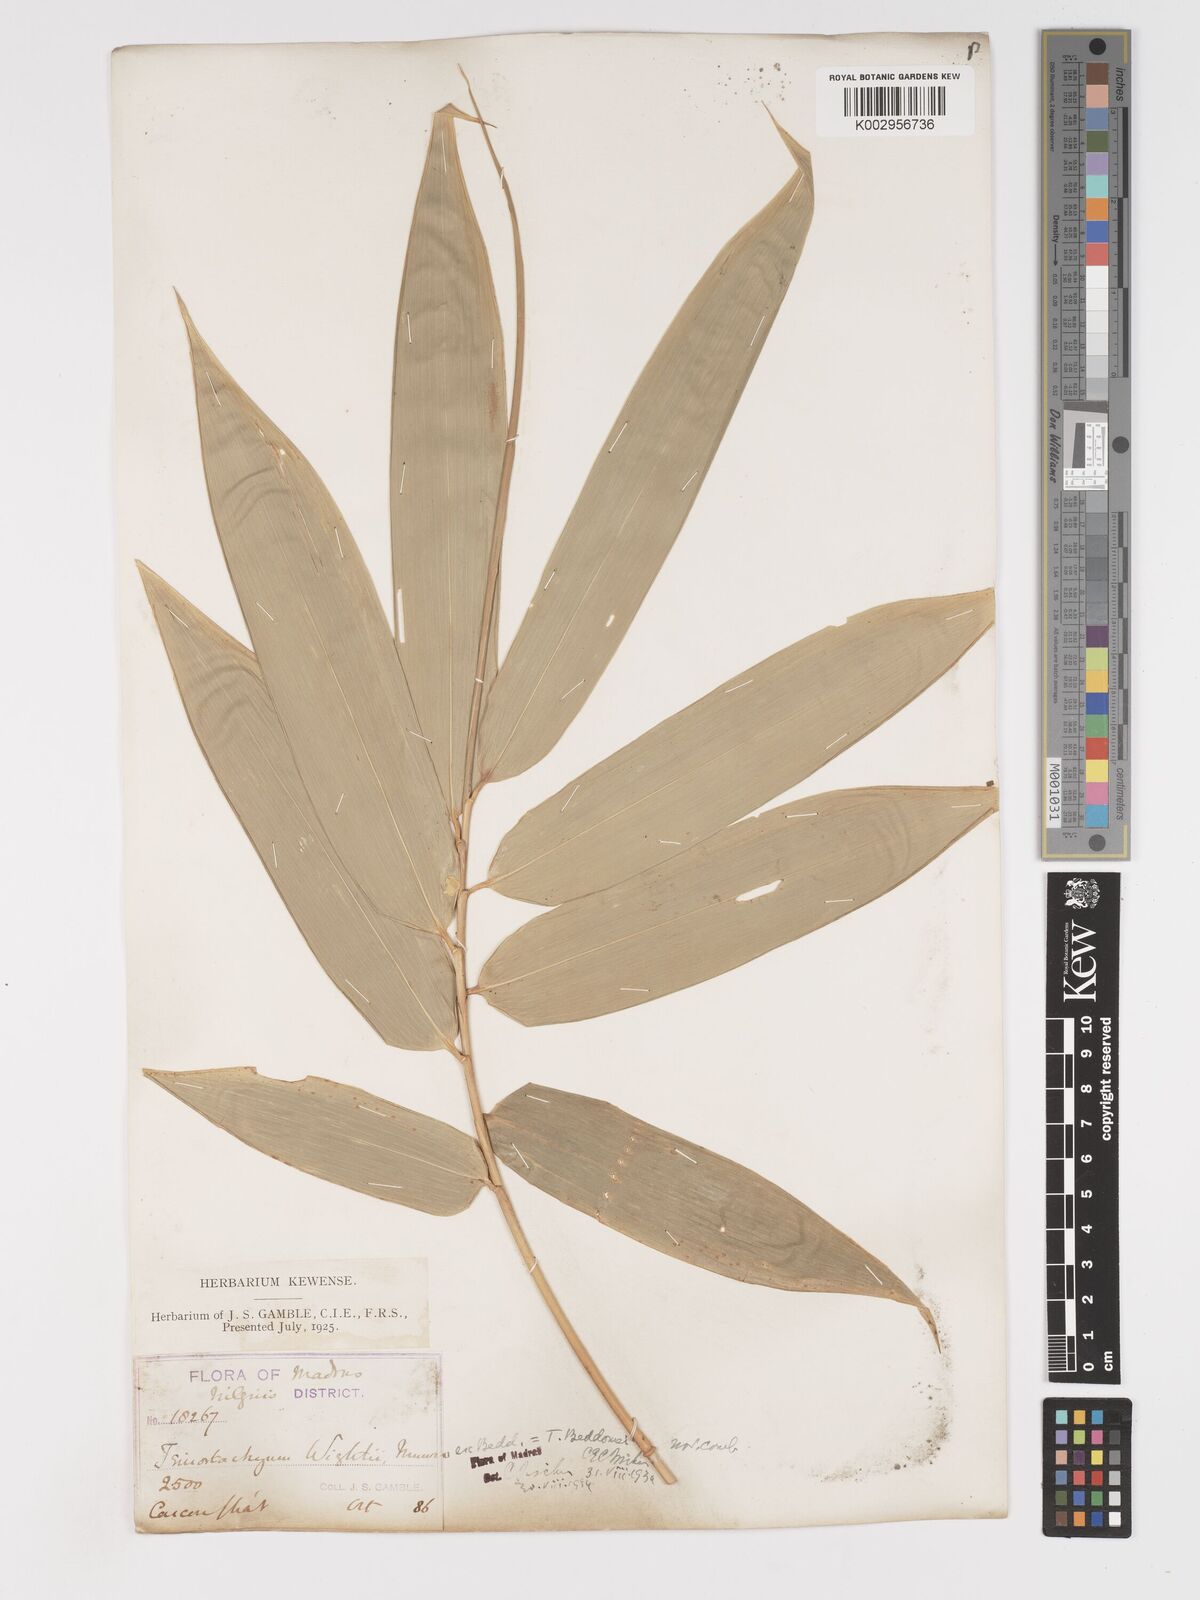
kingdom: Plantae
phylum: Tracheophyta
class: Liliopsida
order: Poales
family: Poaceae
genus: Schizostachyum
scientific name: Schizostachyum beddomei
